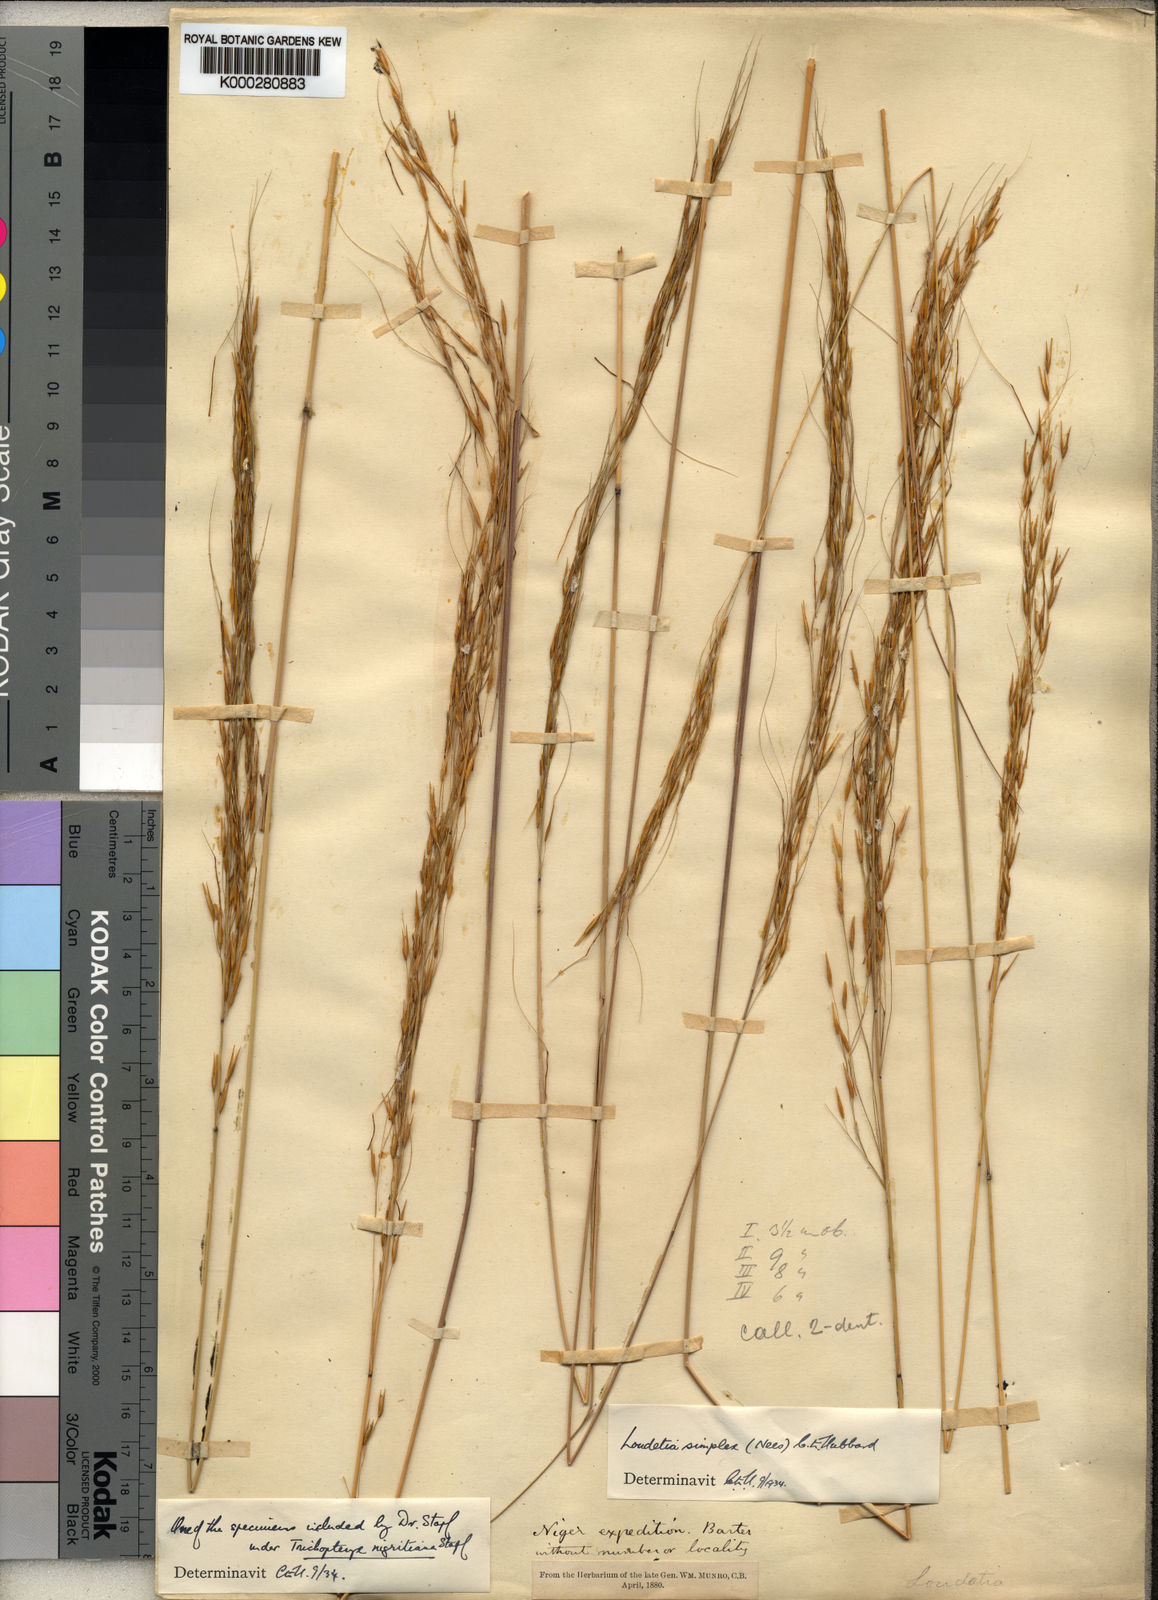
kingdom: Plantae
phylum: Tracheophyta
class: Liliopsida
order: Poales
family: Poaceae
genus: Loudetia
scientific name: Loudetia simplex
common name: Common russet grass
